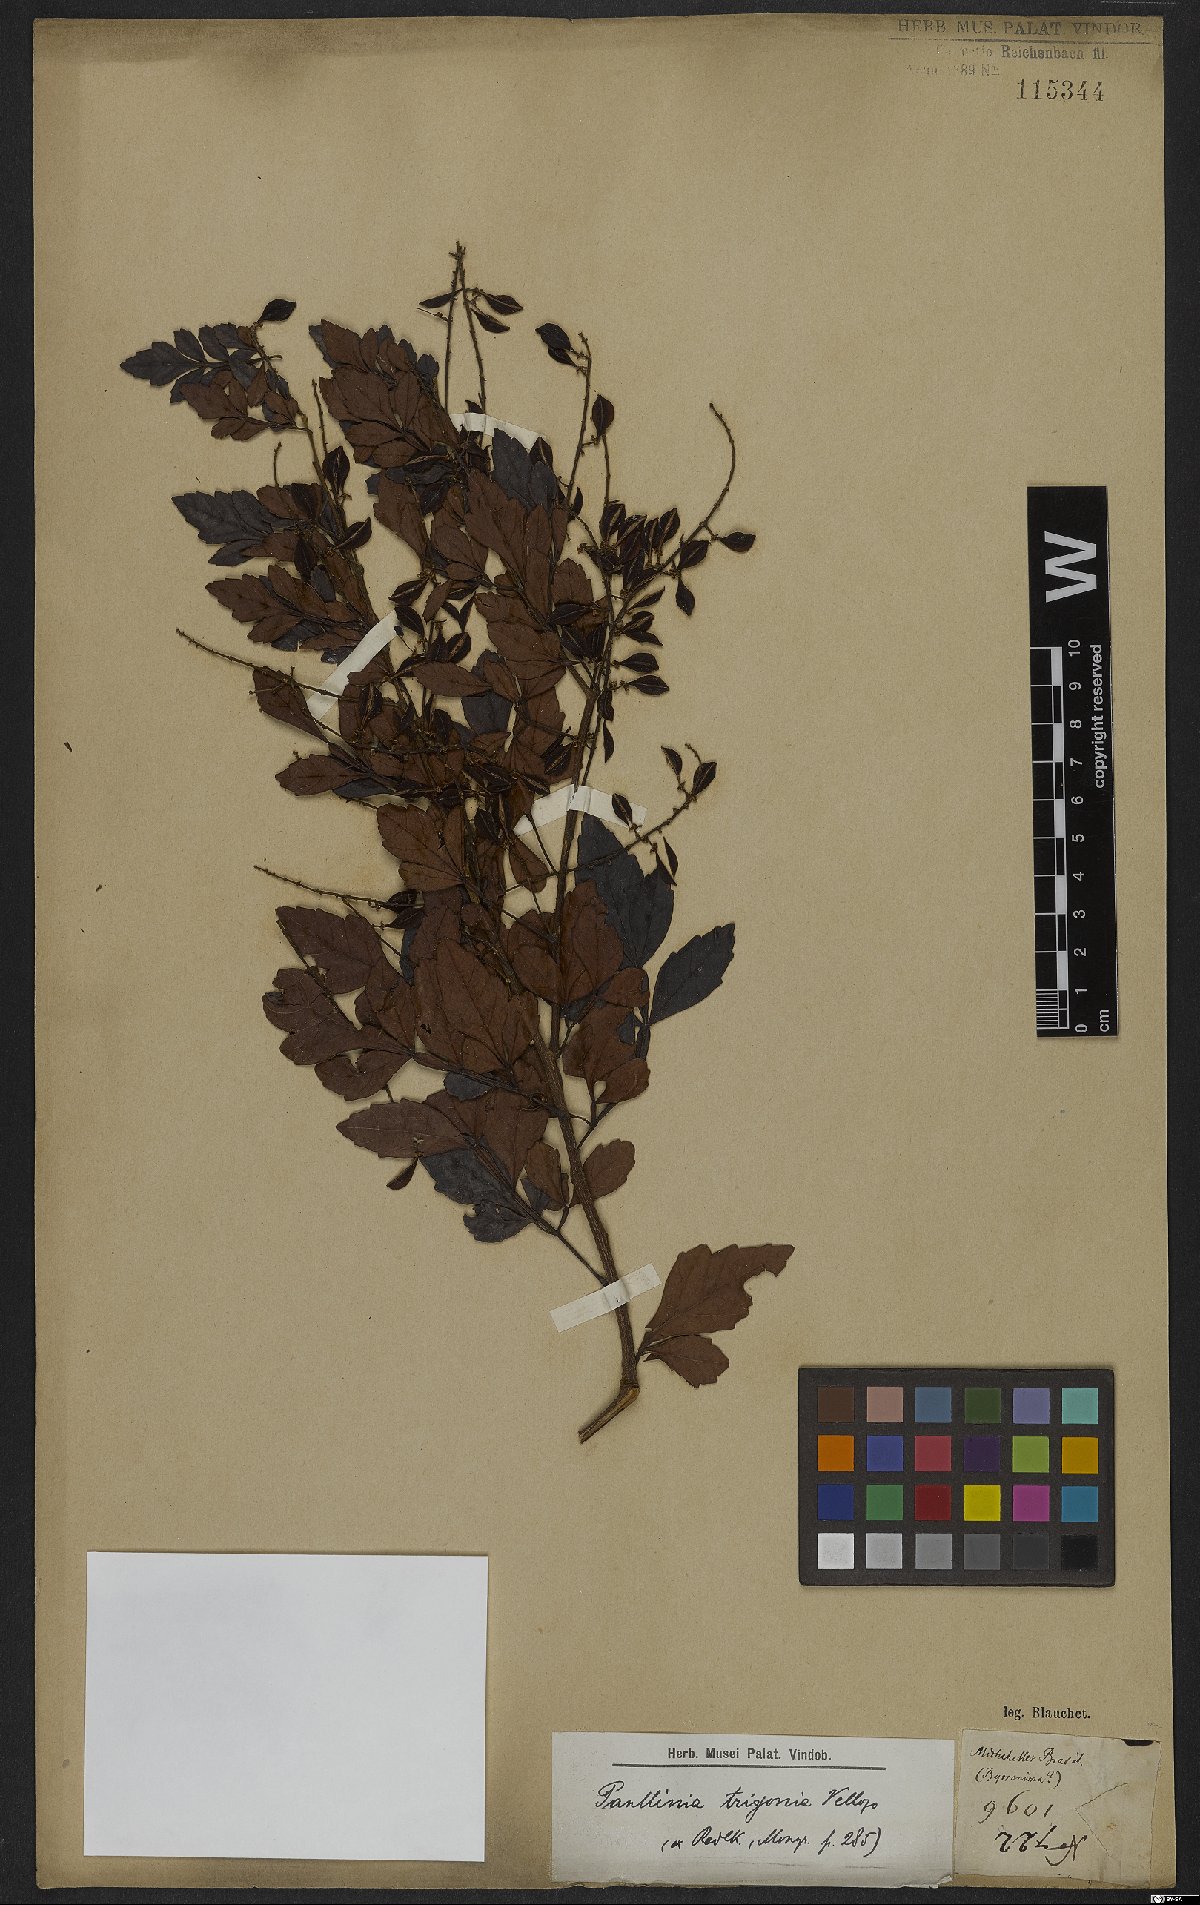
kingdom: Plantae
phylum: Tracheophyta
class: Magnoliopsida
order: Sapindales
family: Sapindaceae
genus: Paullinia
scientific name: Paullinia trigonia
